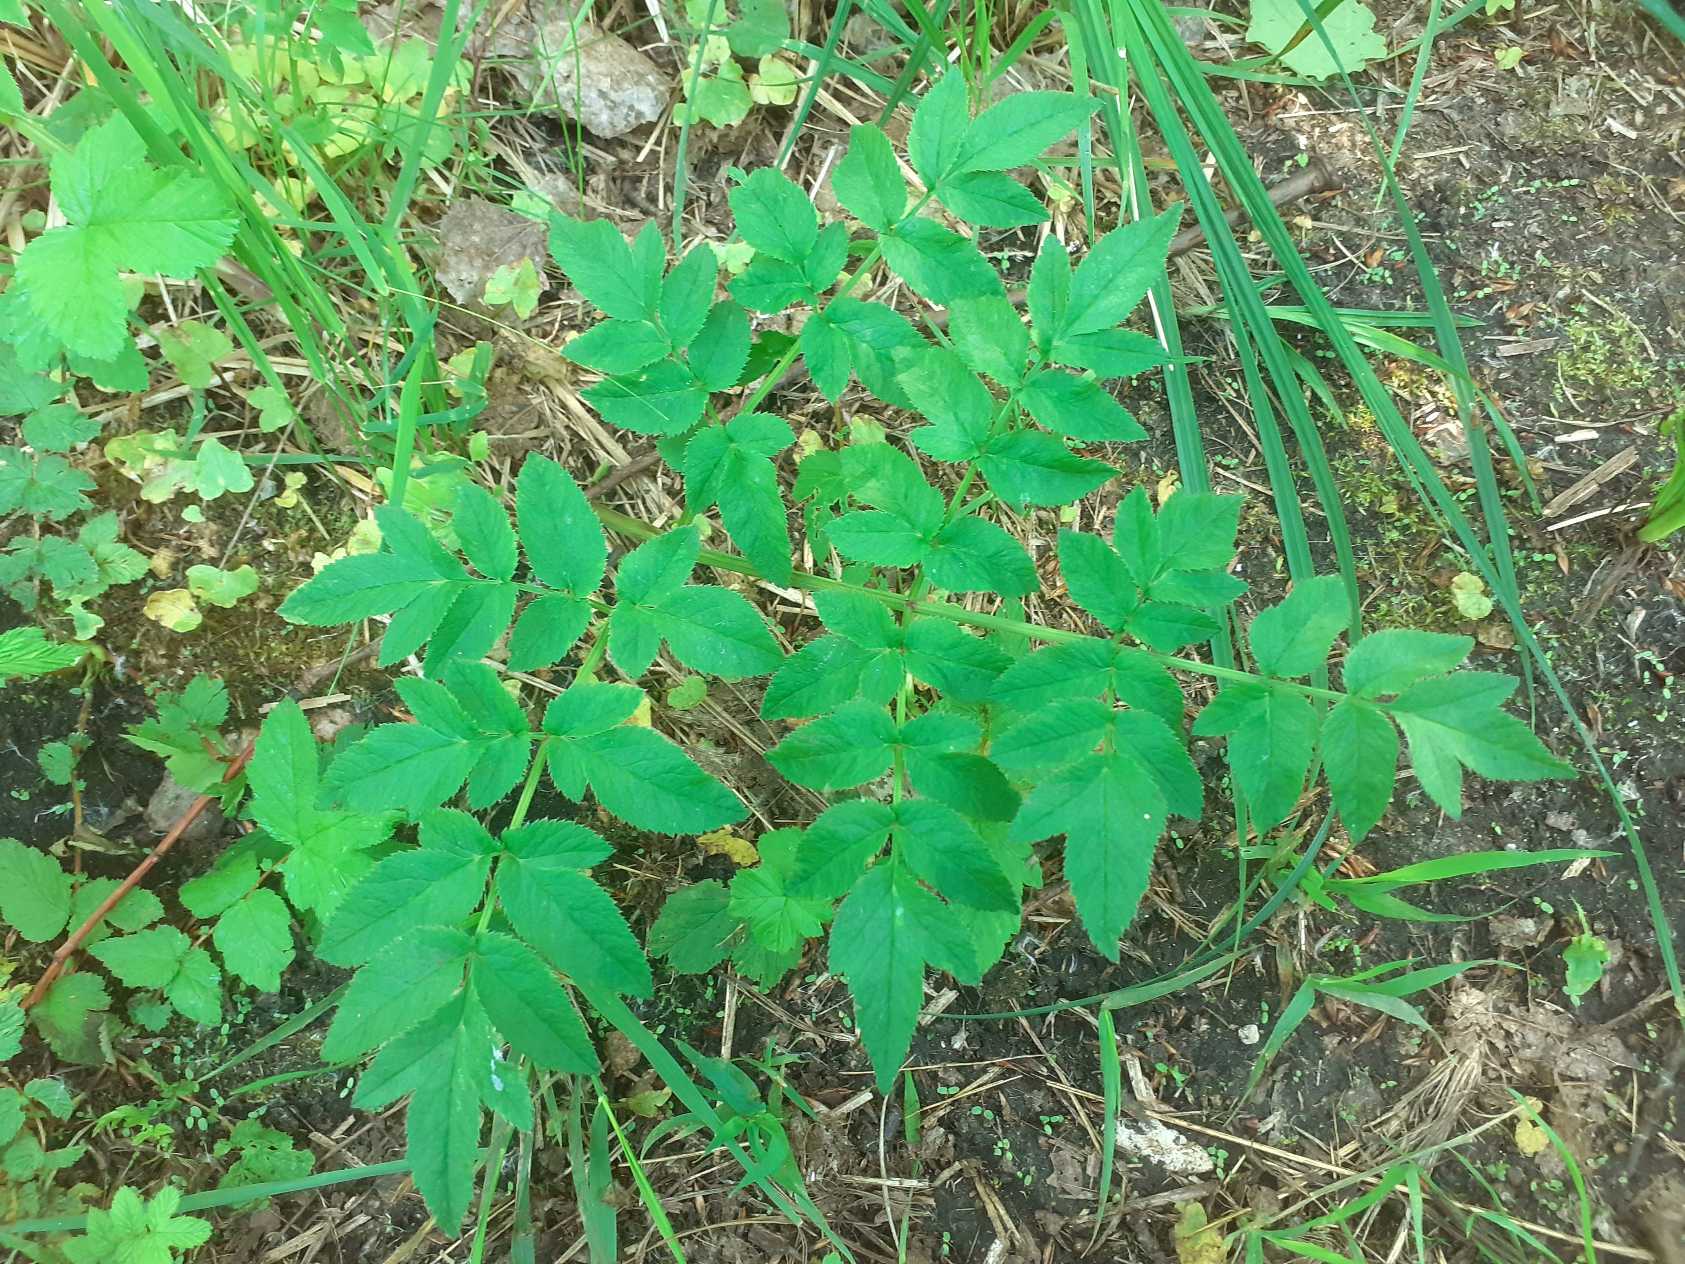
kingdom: Plantae
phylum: Tracheophyta
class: Magnoliopsida
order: Apiales
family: Apiaceae
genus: Angelica
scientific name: Angelica sylvestris
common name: Angelik
